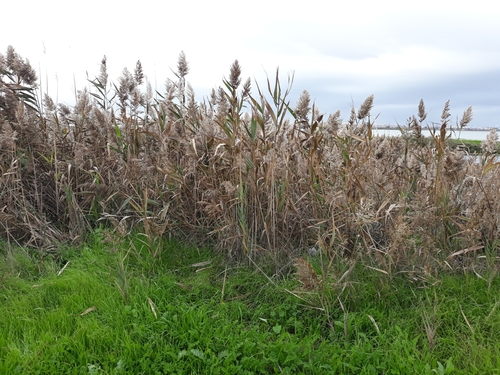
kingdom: Plantae
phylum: Tracheophyta
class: Liliopsida
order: Poales
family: Poaceae
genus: Phragmites
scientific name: Phragmites australis
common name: Common reed
